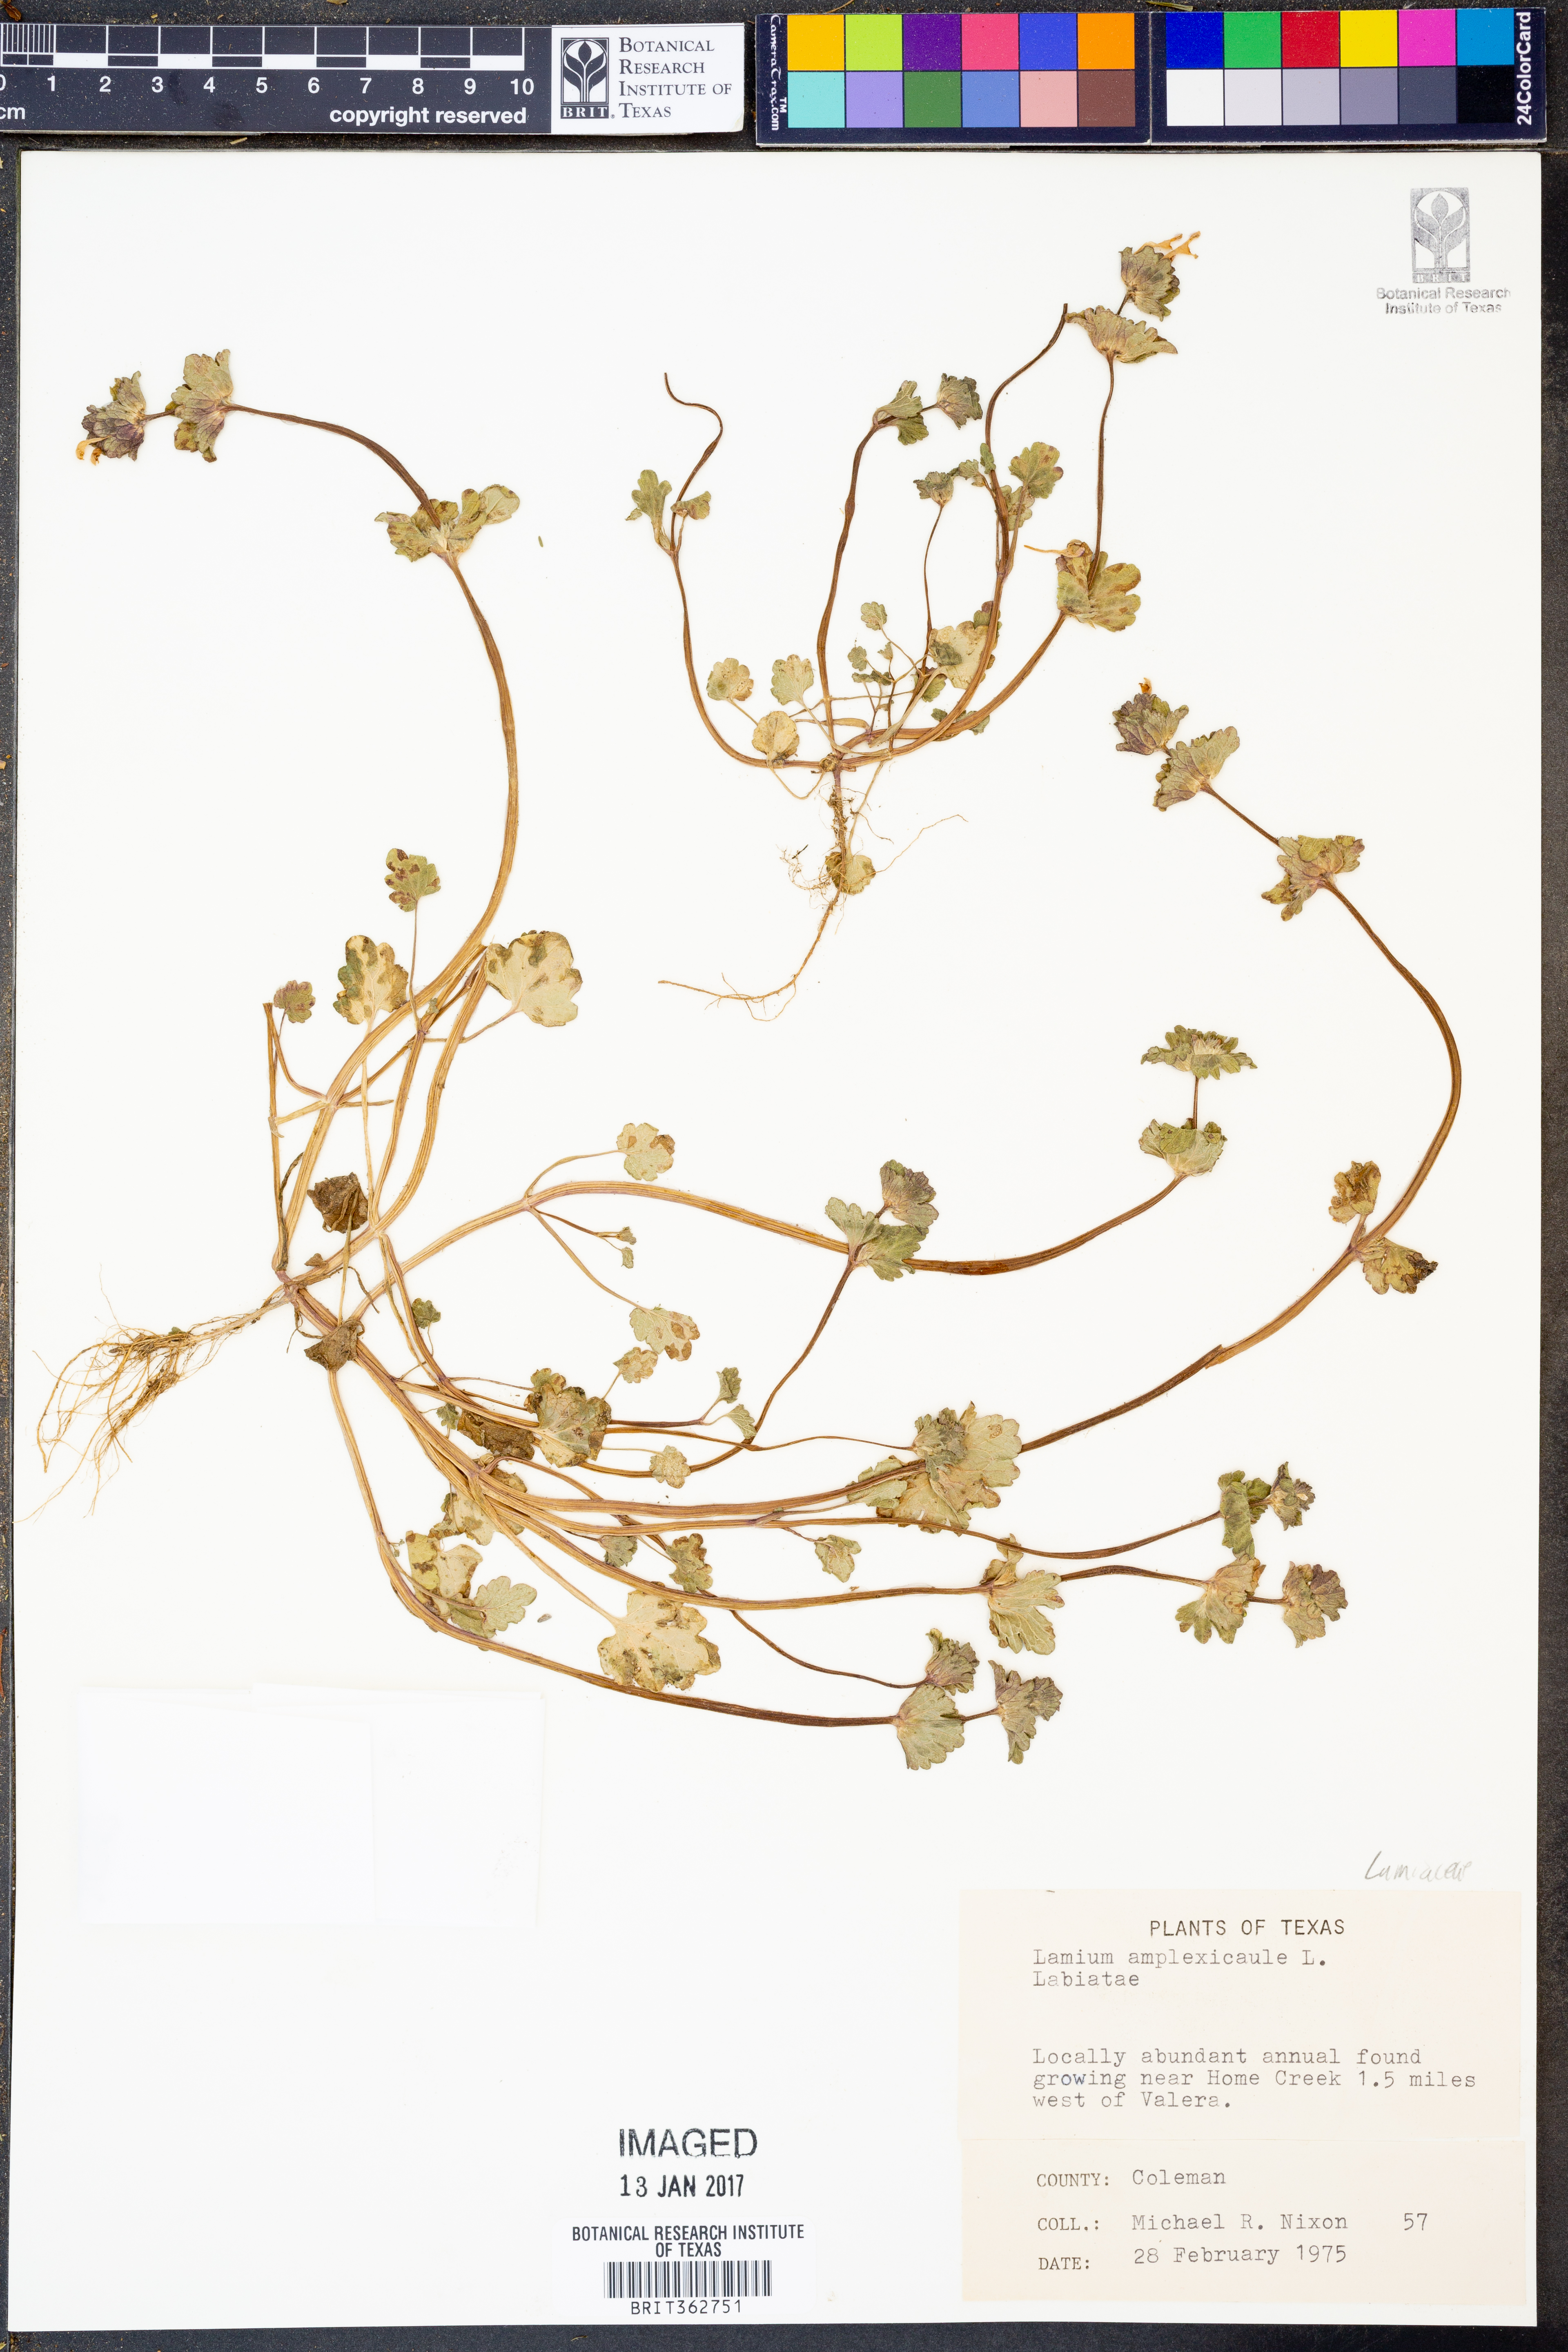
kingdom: Plantae
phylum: Tracheophyta
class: Magnoliopsida
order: Lamiales
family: Lamiaceae
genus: Lamium
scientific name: Lamium amplexicaule
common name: Henbit dead-nettle
